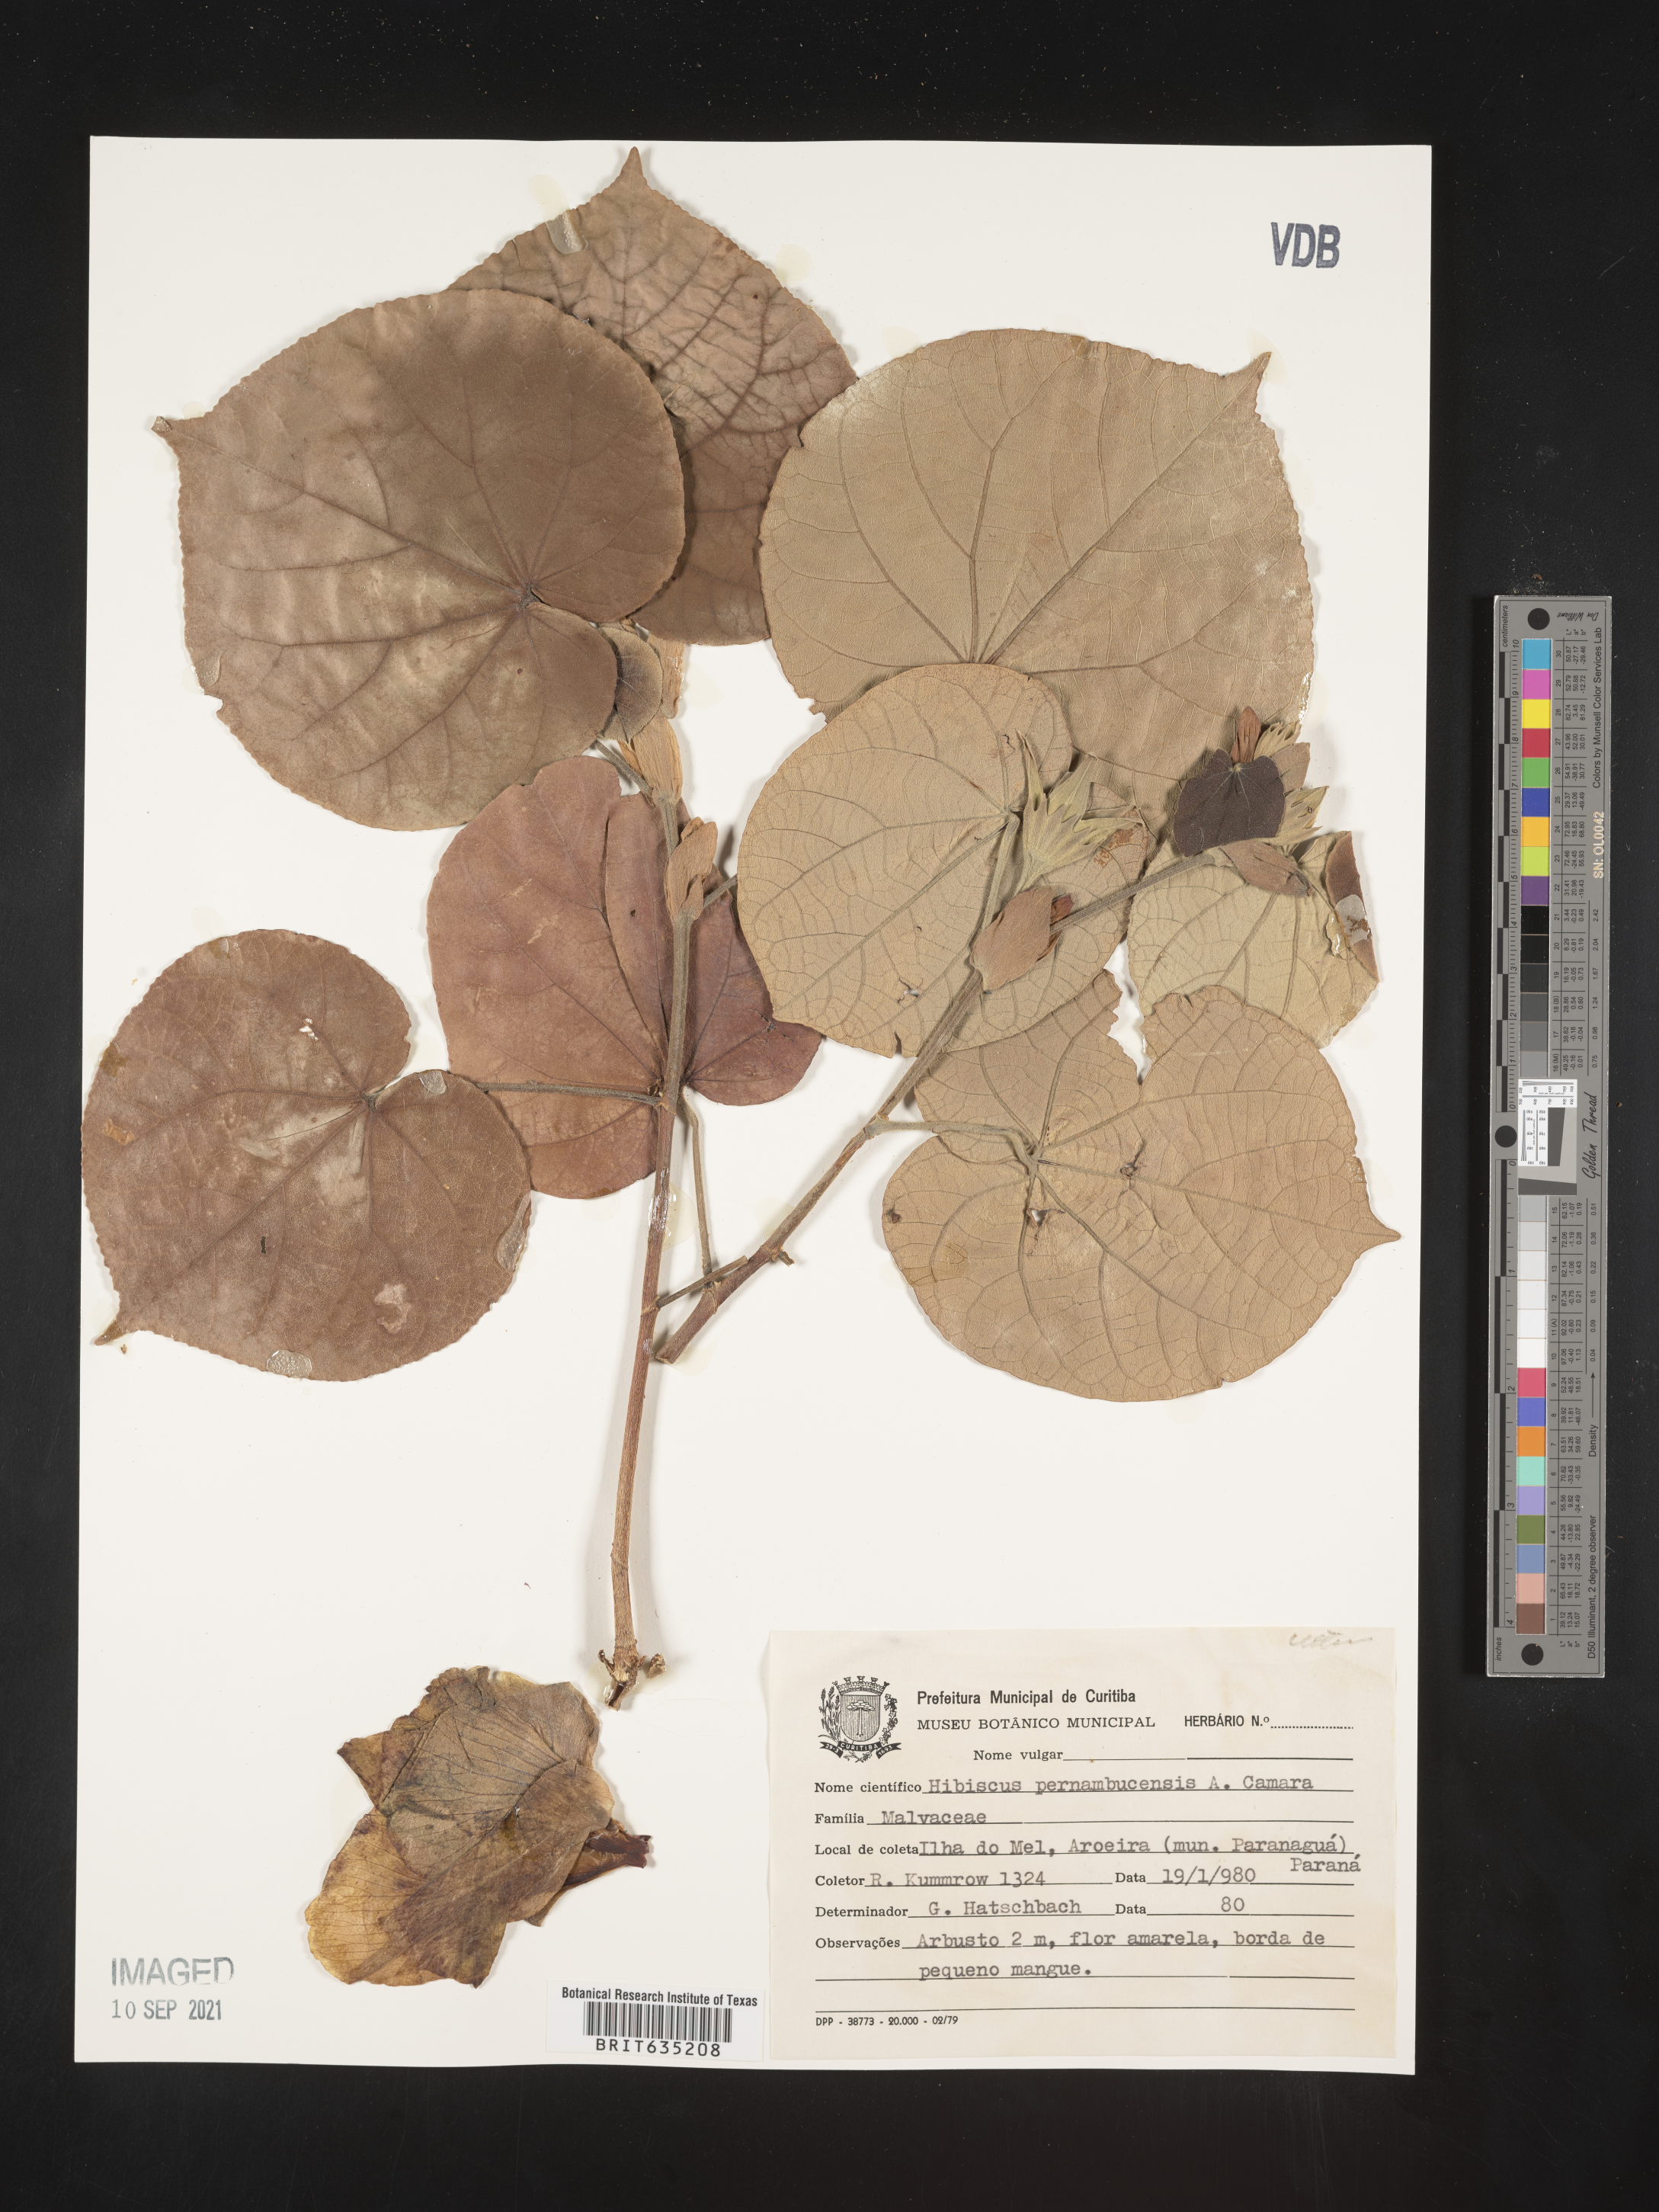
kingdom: Plantae
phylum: Tracheophyta
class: Magnoliopsida
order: Malvales
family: Malvaceae
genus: Hibiscus
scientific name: Hibiscus
